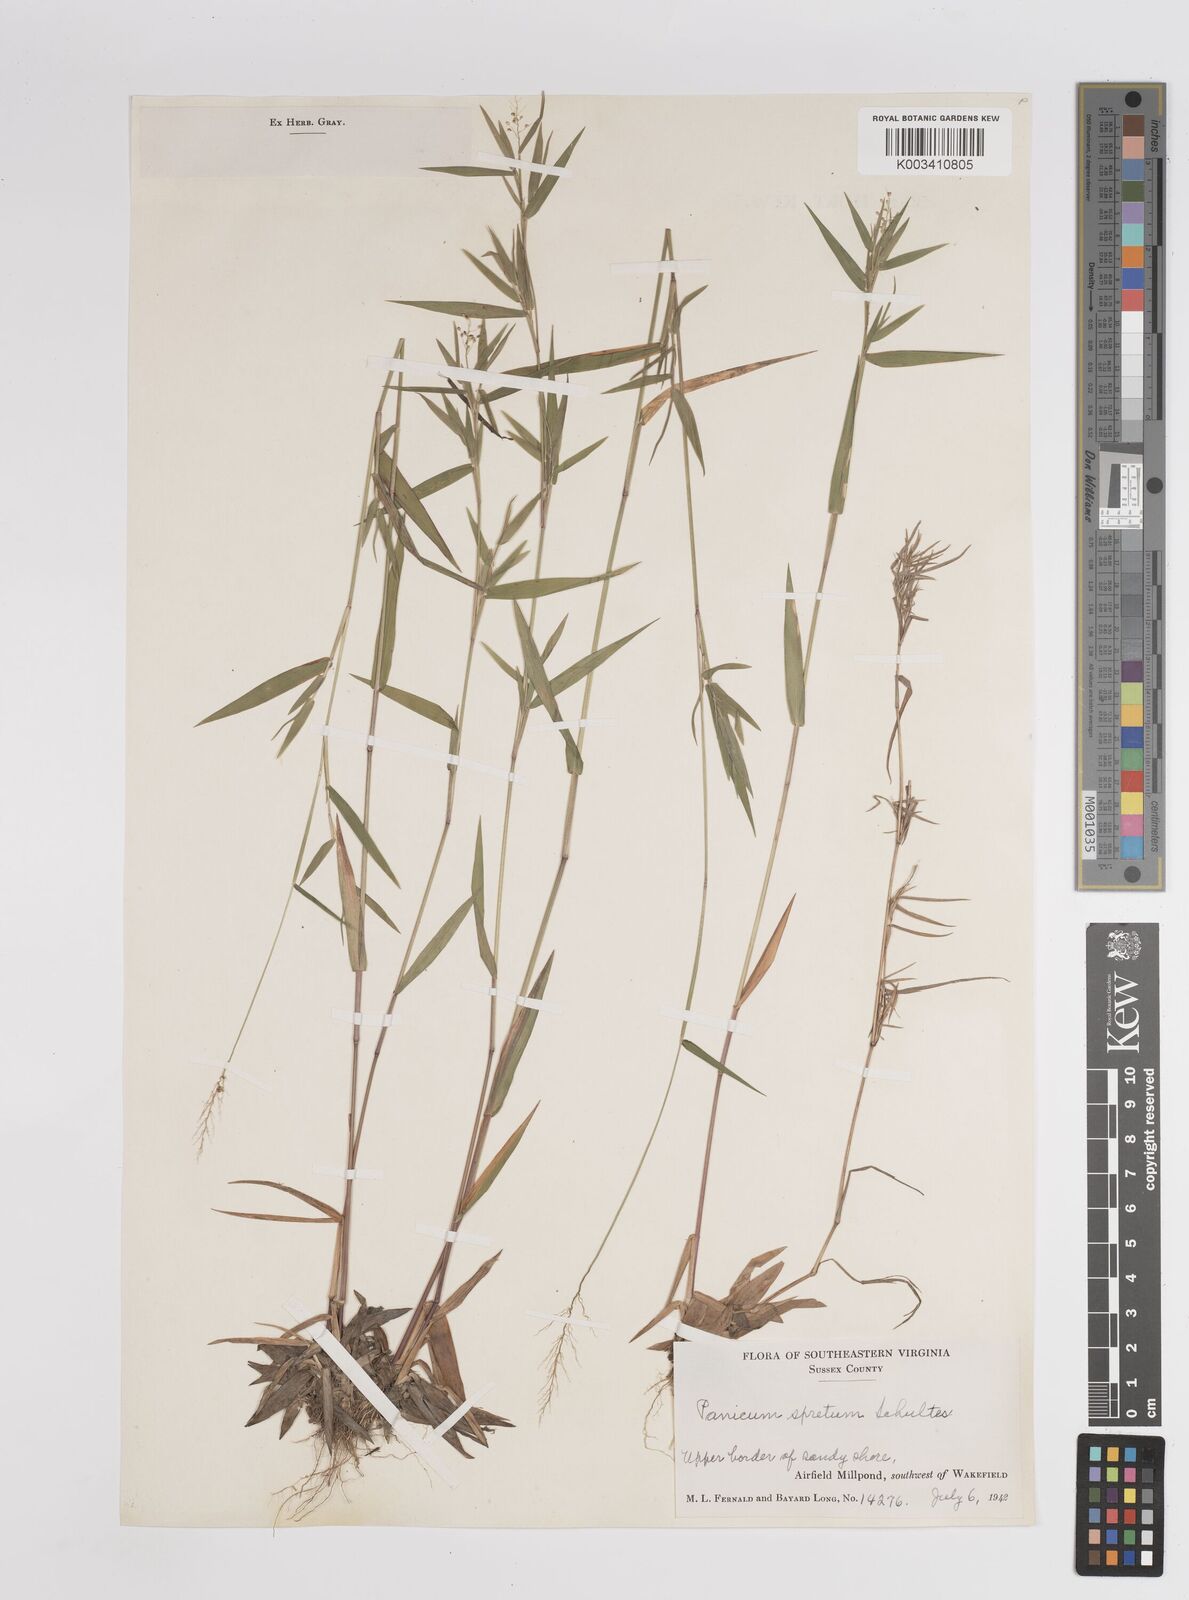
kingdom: Plantae
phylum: Tracheophyta
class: Liliopsida
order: Poales
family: Poaceae
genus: Dichanthelium
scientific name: Dichanthelium acuminatum
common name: Hairy panic grass
